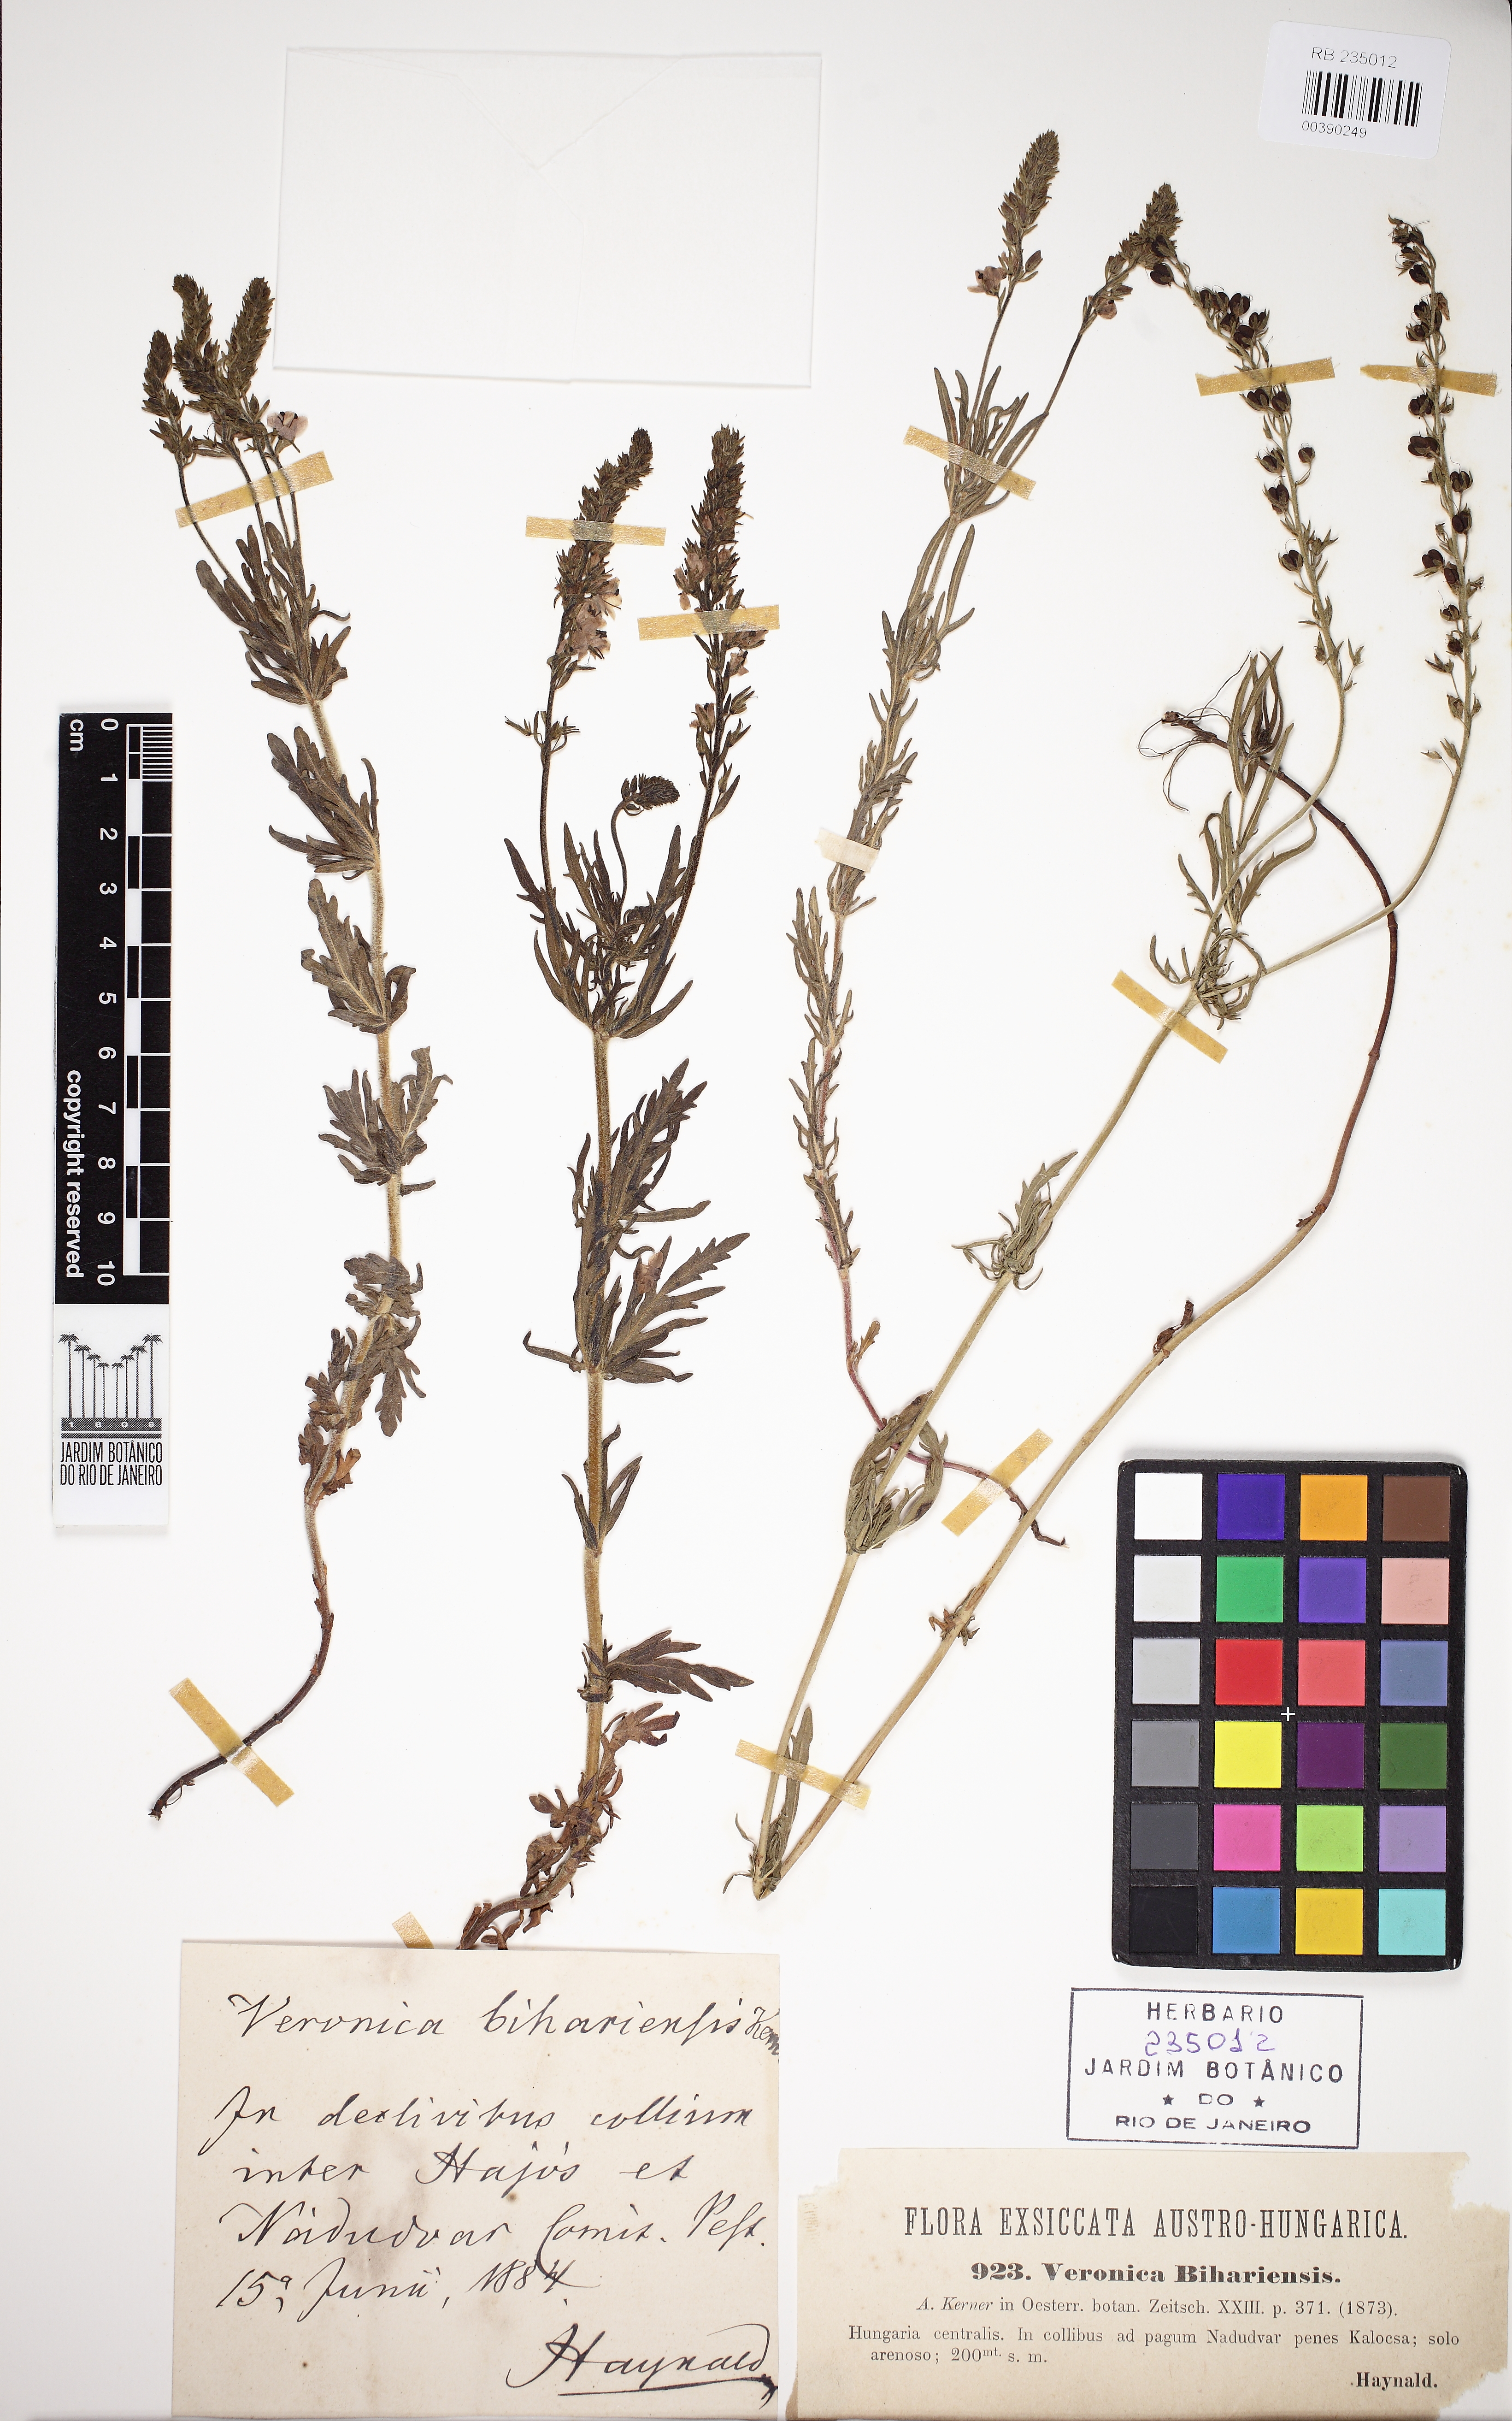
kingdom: Plantae
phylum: Tracheophyta
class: Magnoliopsida
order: Lamiales
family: Plantaginaceae
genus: Veronica
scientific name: Veronica austriaca
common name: Large speedwell
